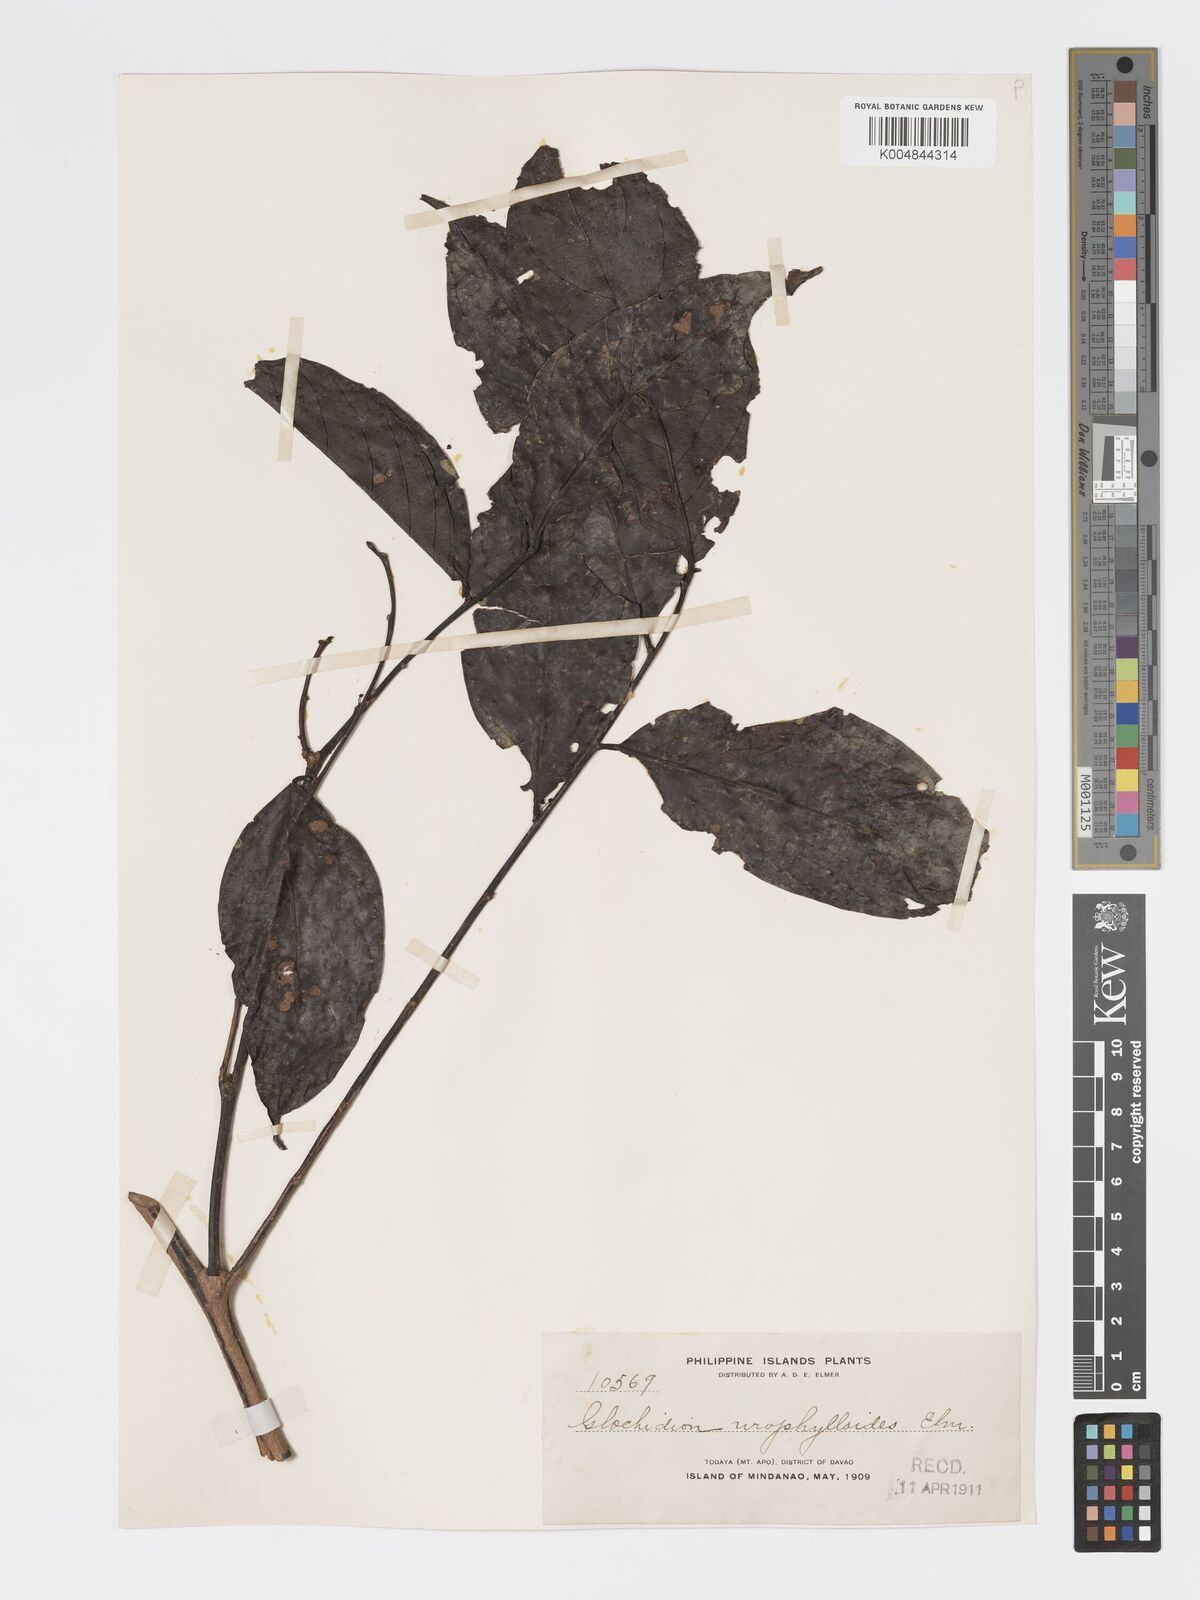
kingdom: Plantae
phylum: Tracheophyta
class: Magnoliopsida
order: Malpighiales
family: Phyllanthaceae
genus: Glochidion
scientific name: Glochidion urophylloides
